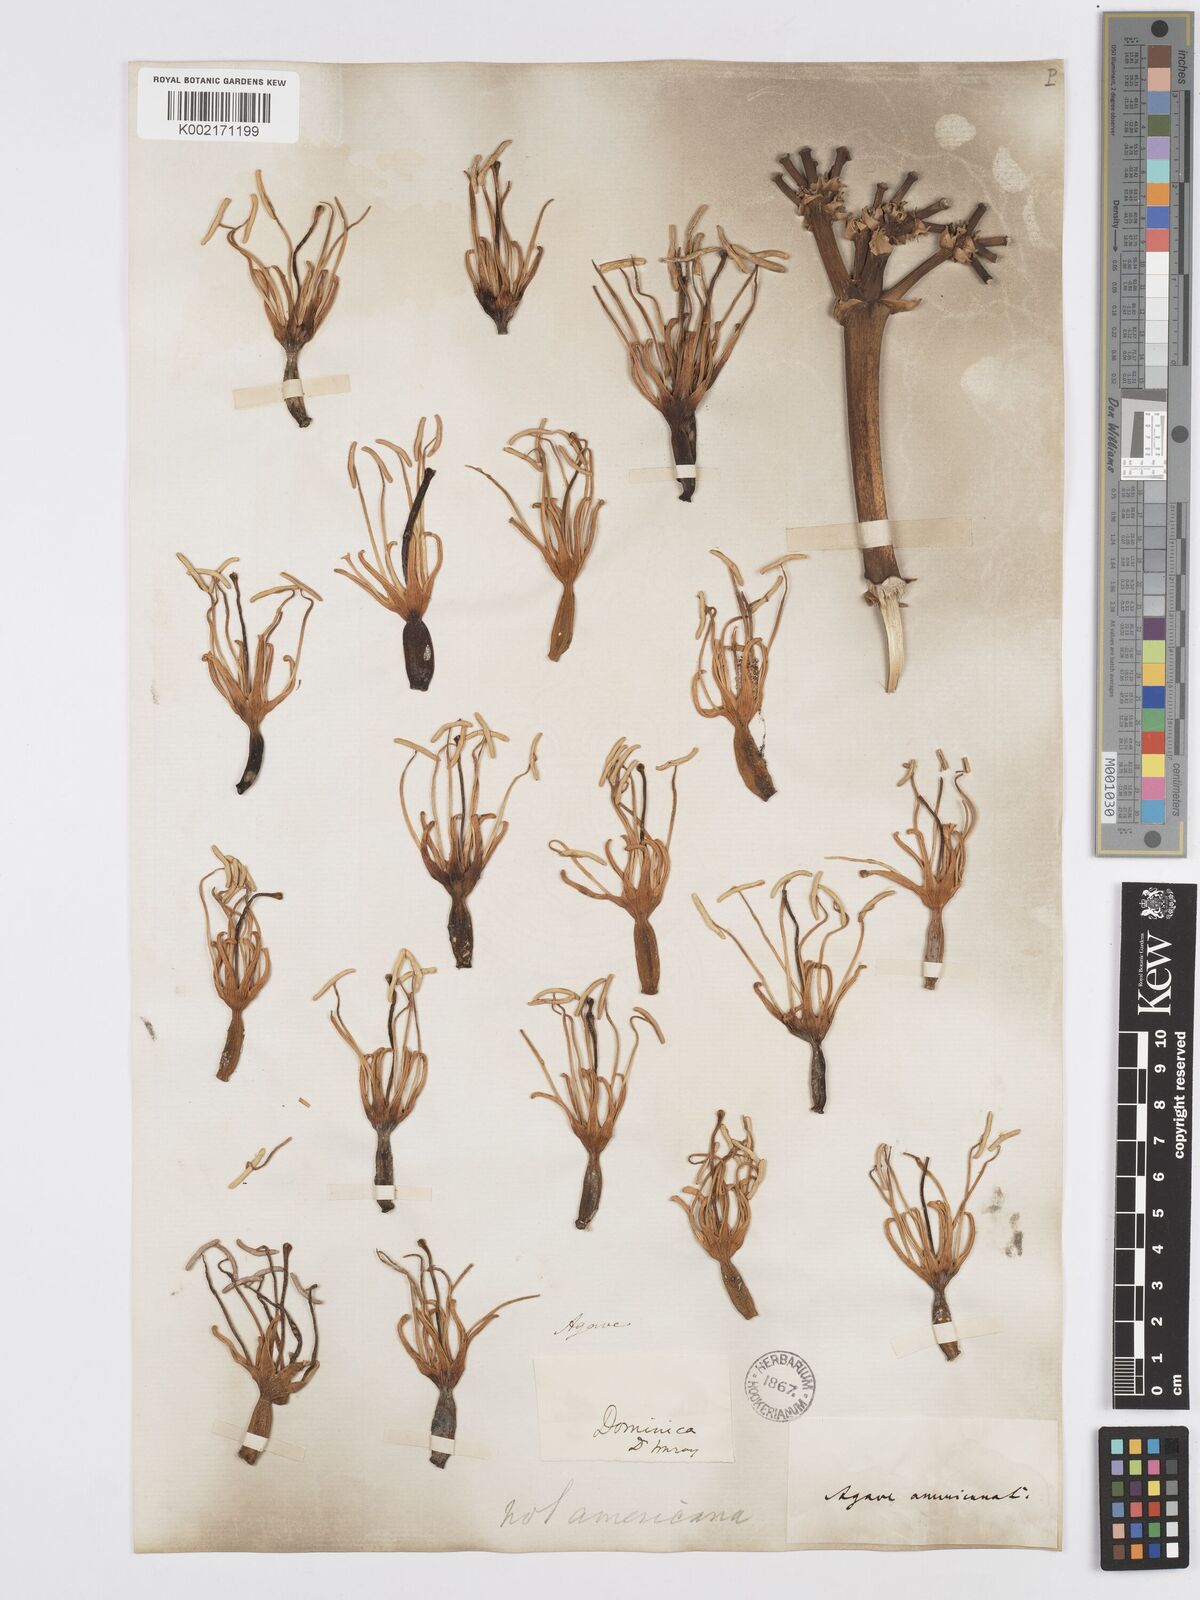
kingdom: Plantae
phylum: Tracheophyta
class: Liliopsida
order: Asparagales
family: Asparagaceae
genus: Agave
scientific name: Agave americana
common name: Centuryplant
